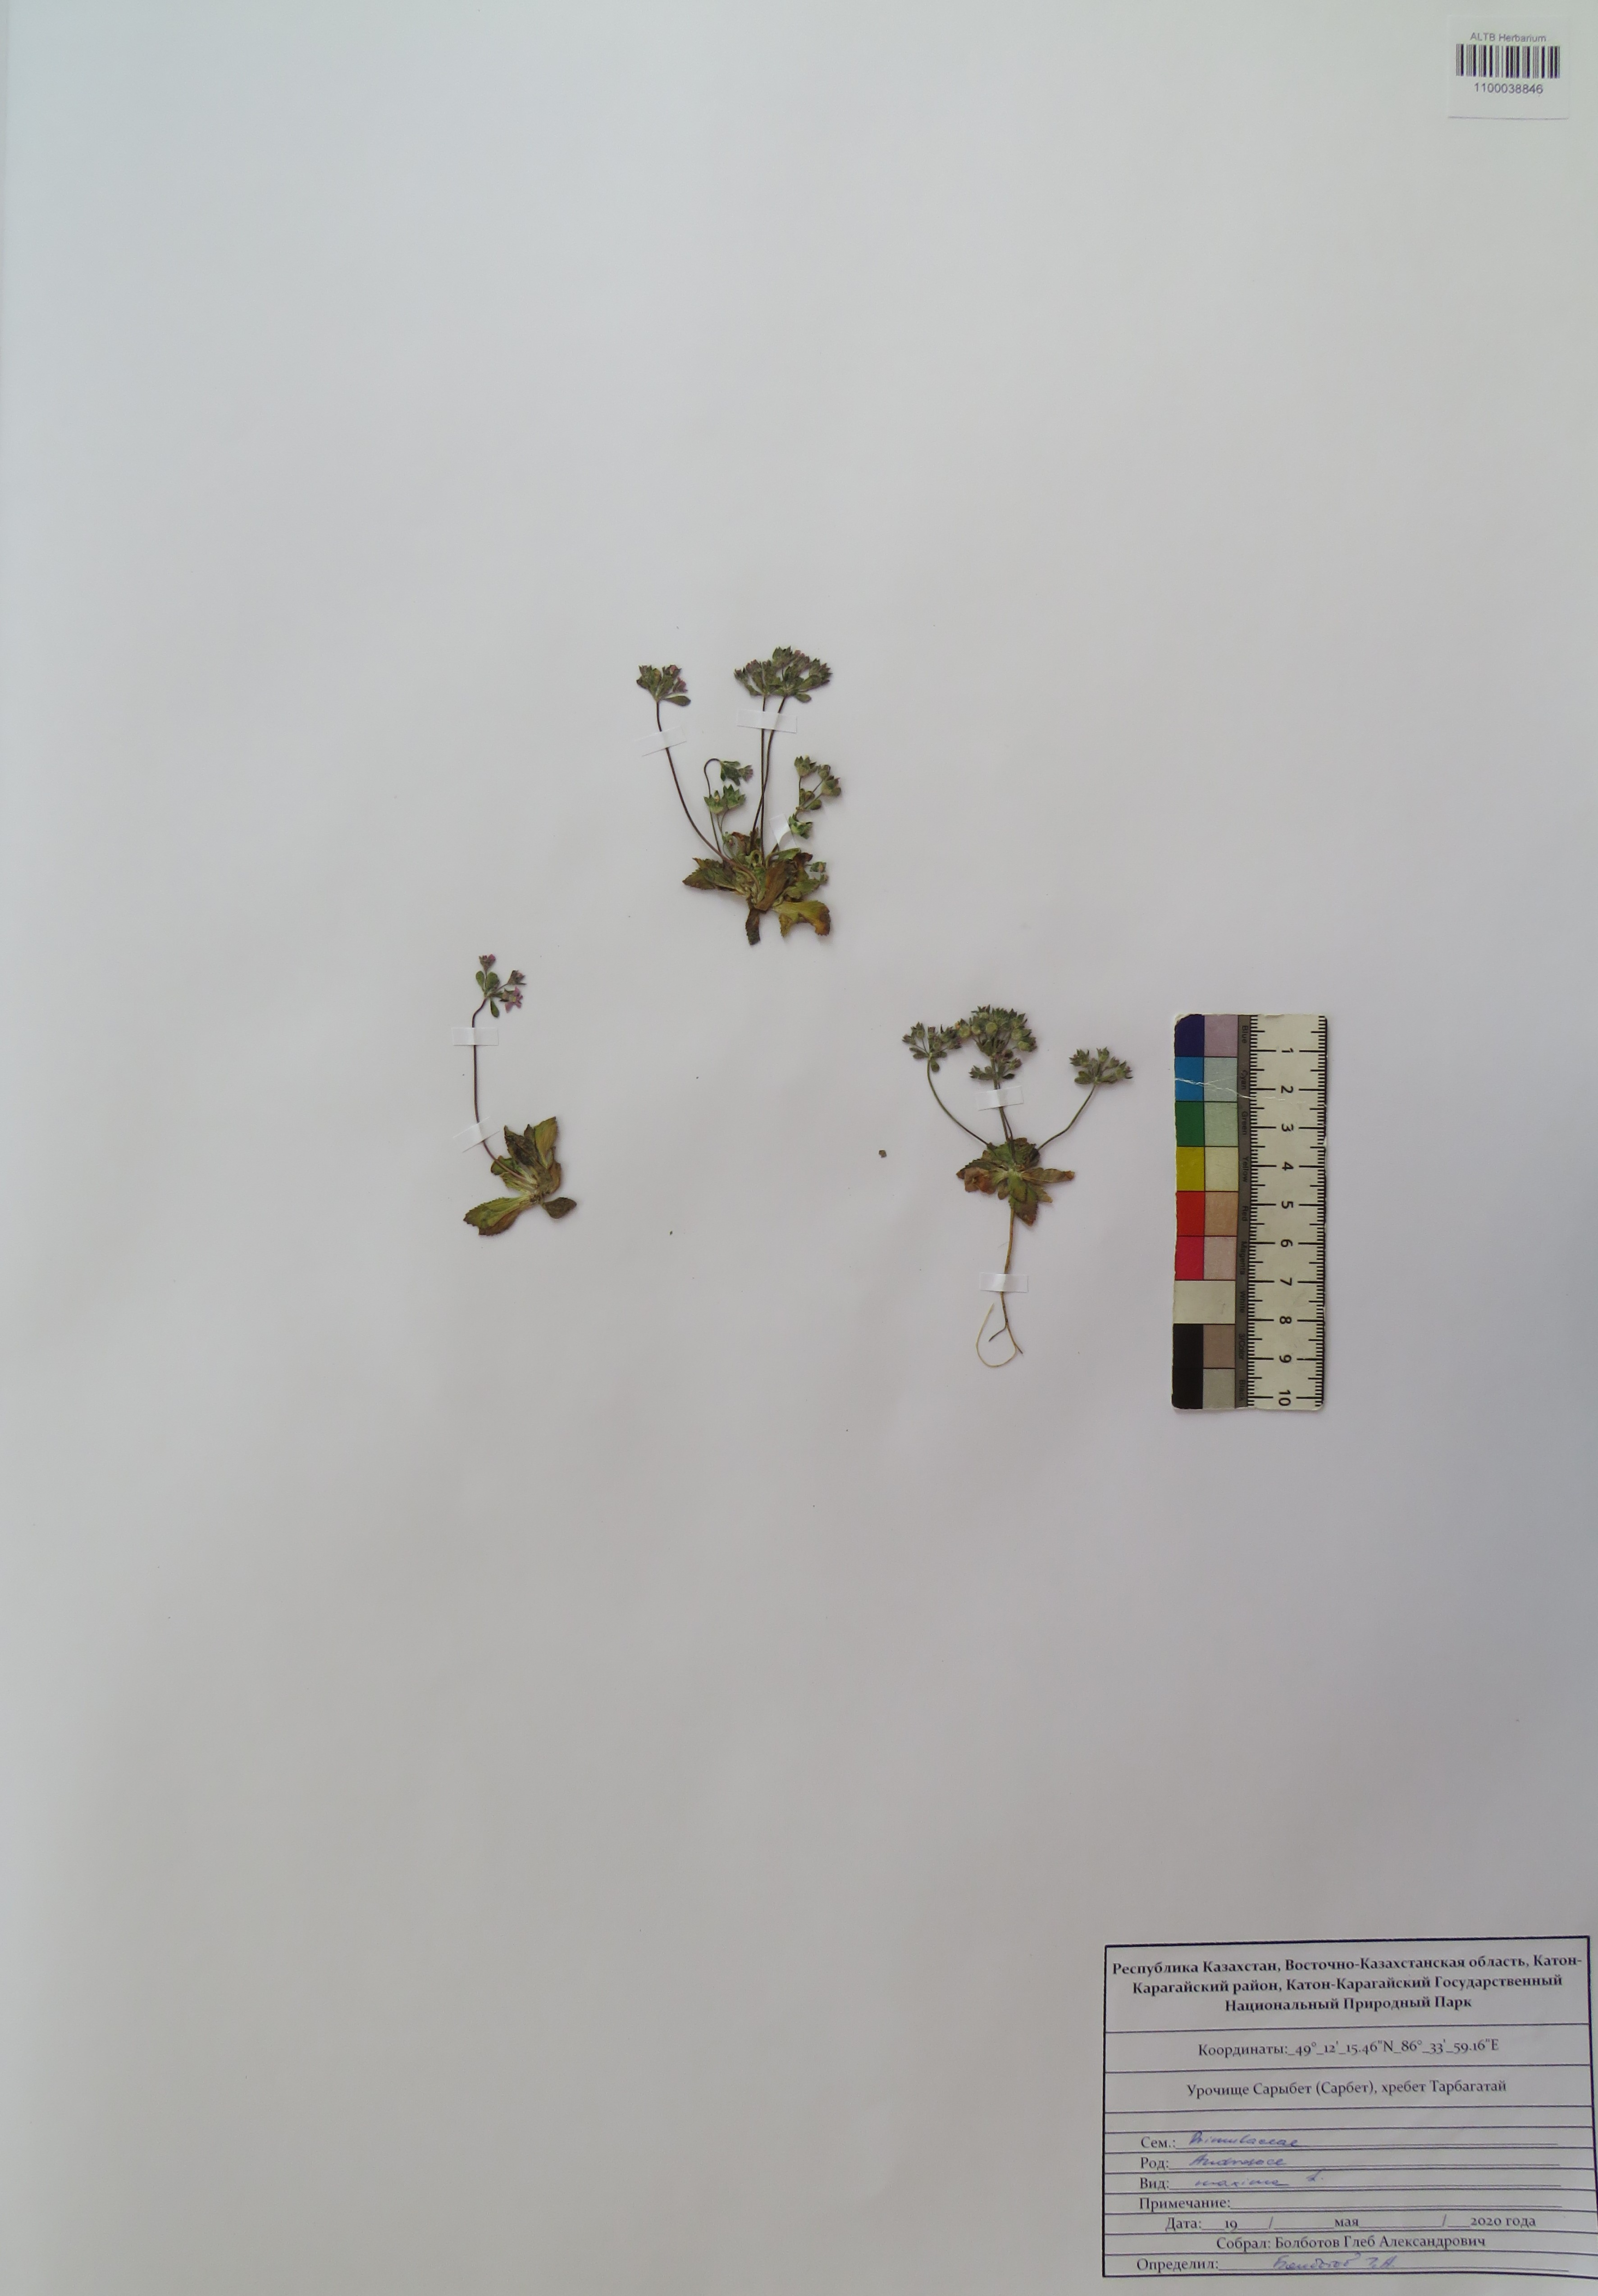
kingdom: Plantae
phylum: Tracheophyta
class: Magnoliopsida
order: Ericales
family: Primulaceae
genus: Androsace
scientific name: Androsace maxima
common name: Annual androsace
